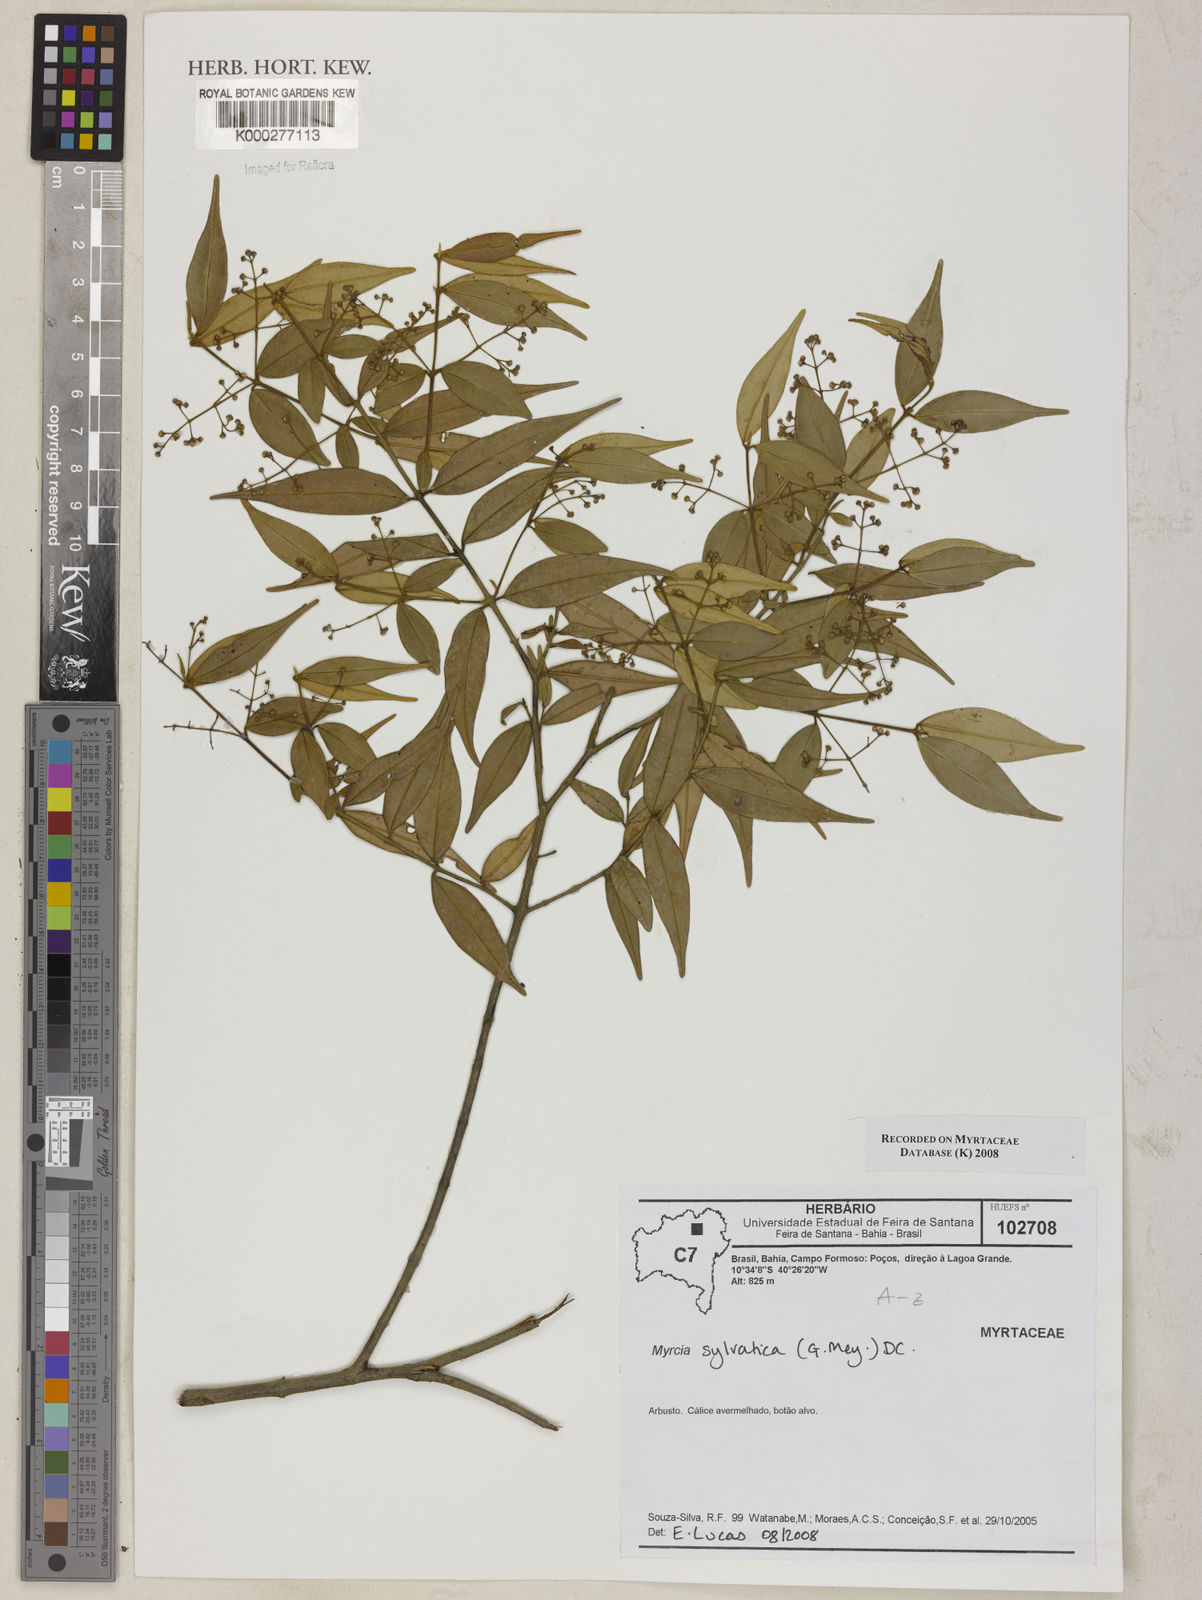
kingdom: Plantae
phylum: Tracheophyta
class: Magnoliopsida
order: Myrtales
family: Myrtaceae
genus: Myrcia
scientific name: Myrcia sylvatica
